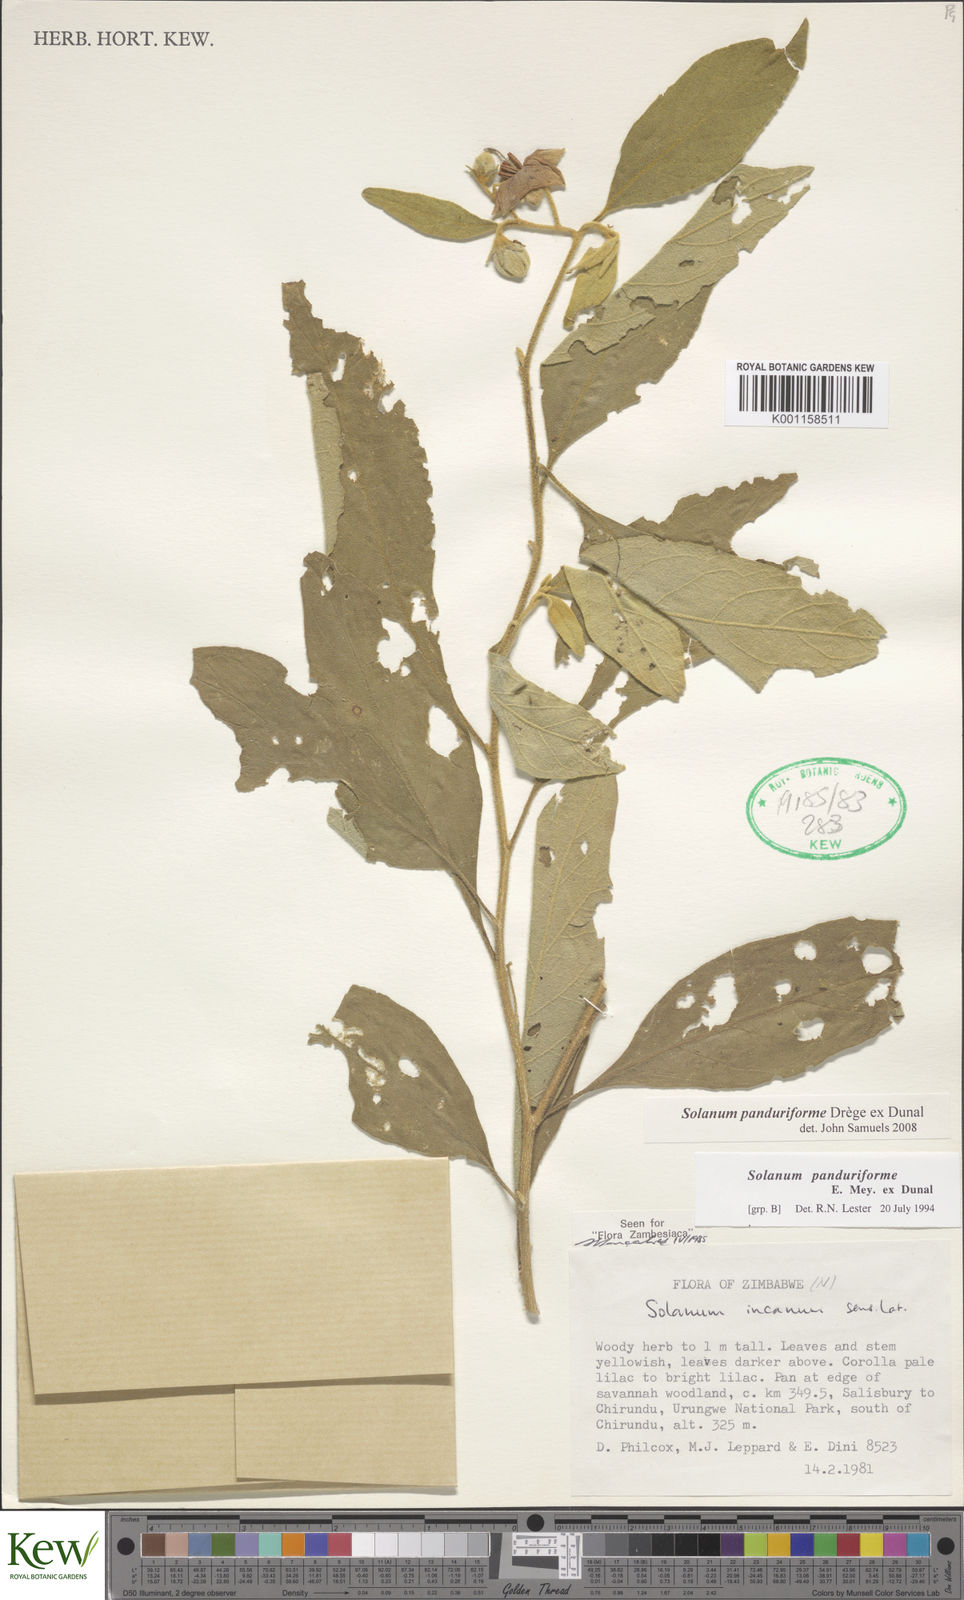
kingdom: Plantae
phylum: Tracheophyta
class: Magnoliopsida
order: Solanales
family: Solanaceae
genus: Solanum
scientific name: Solanum campylacanthum
